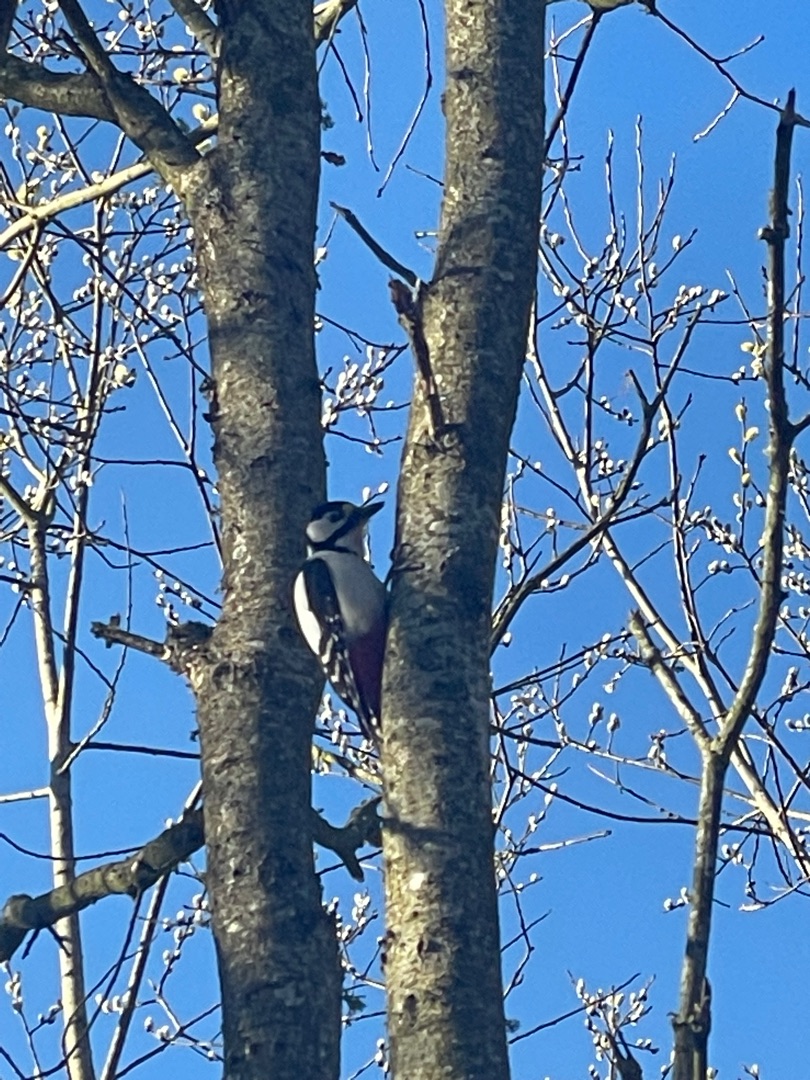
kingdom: Animalia
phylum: Chordata
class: Aves
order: Piciformes
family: Picidae
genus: Dendrocopos
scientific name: Dendrocopos major
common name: Stor flagspætte
